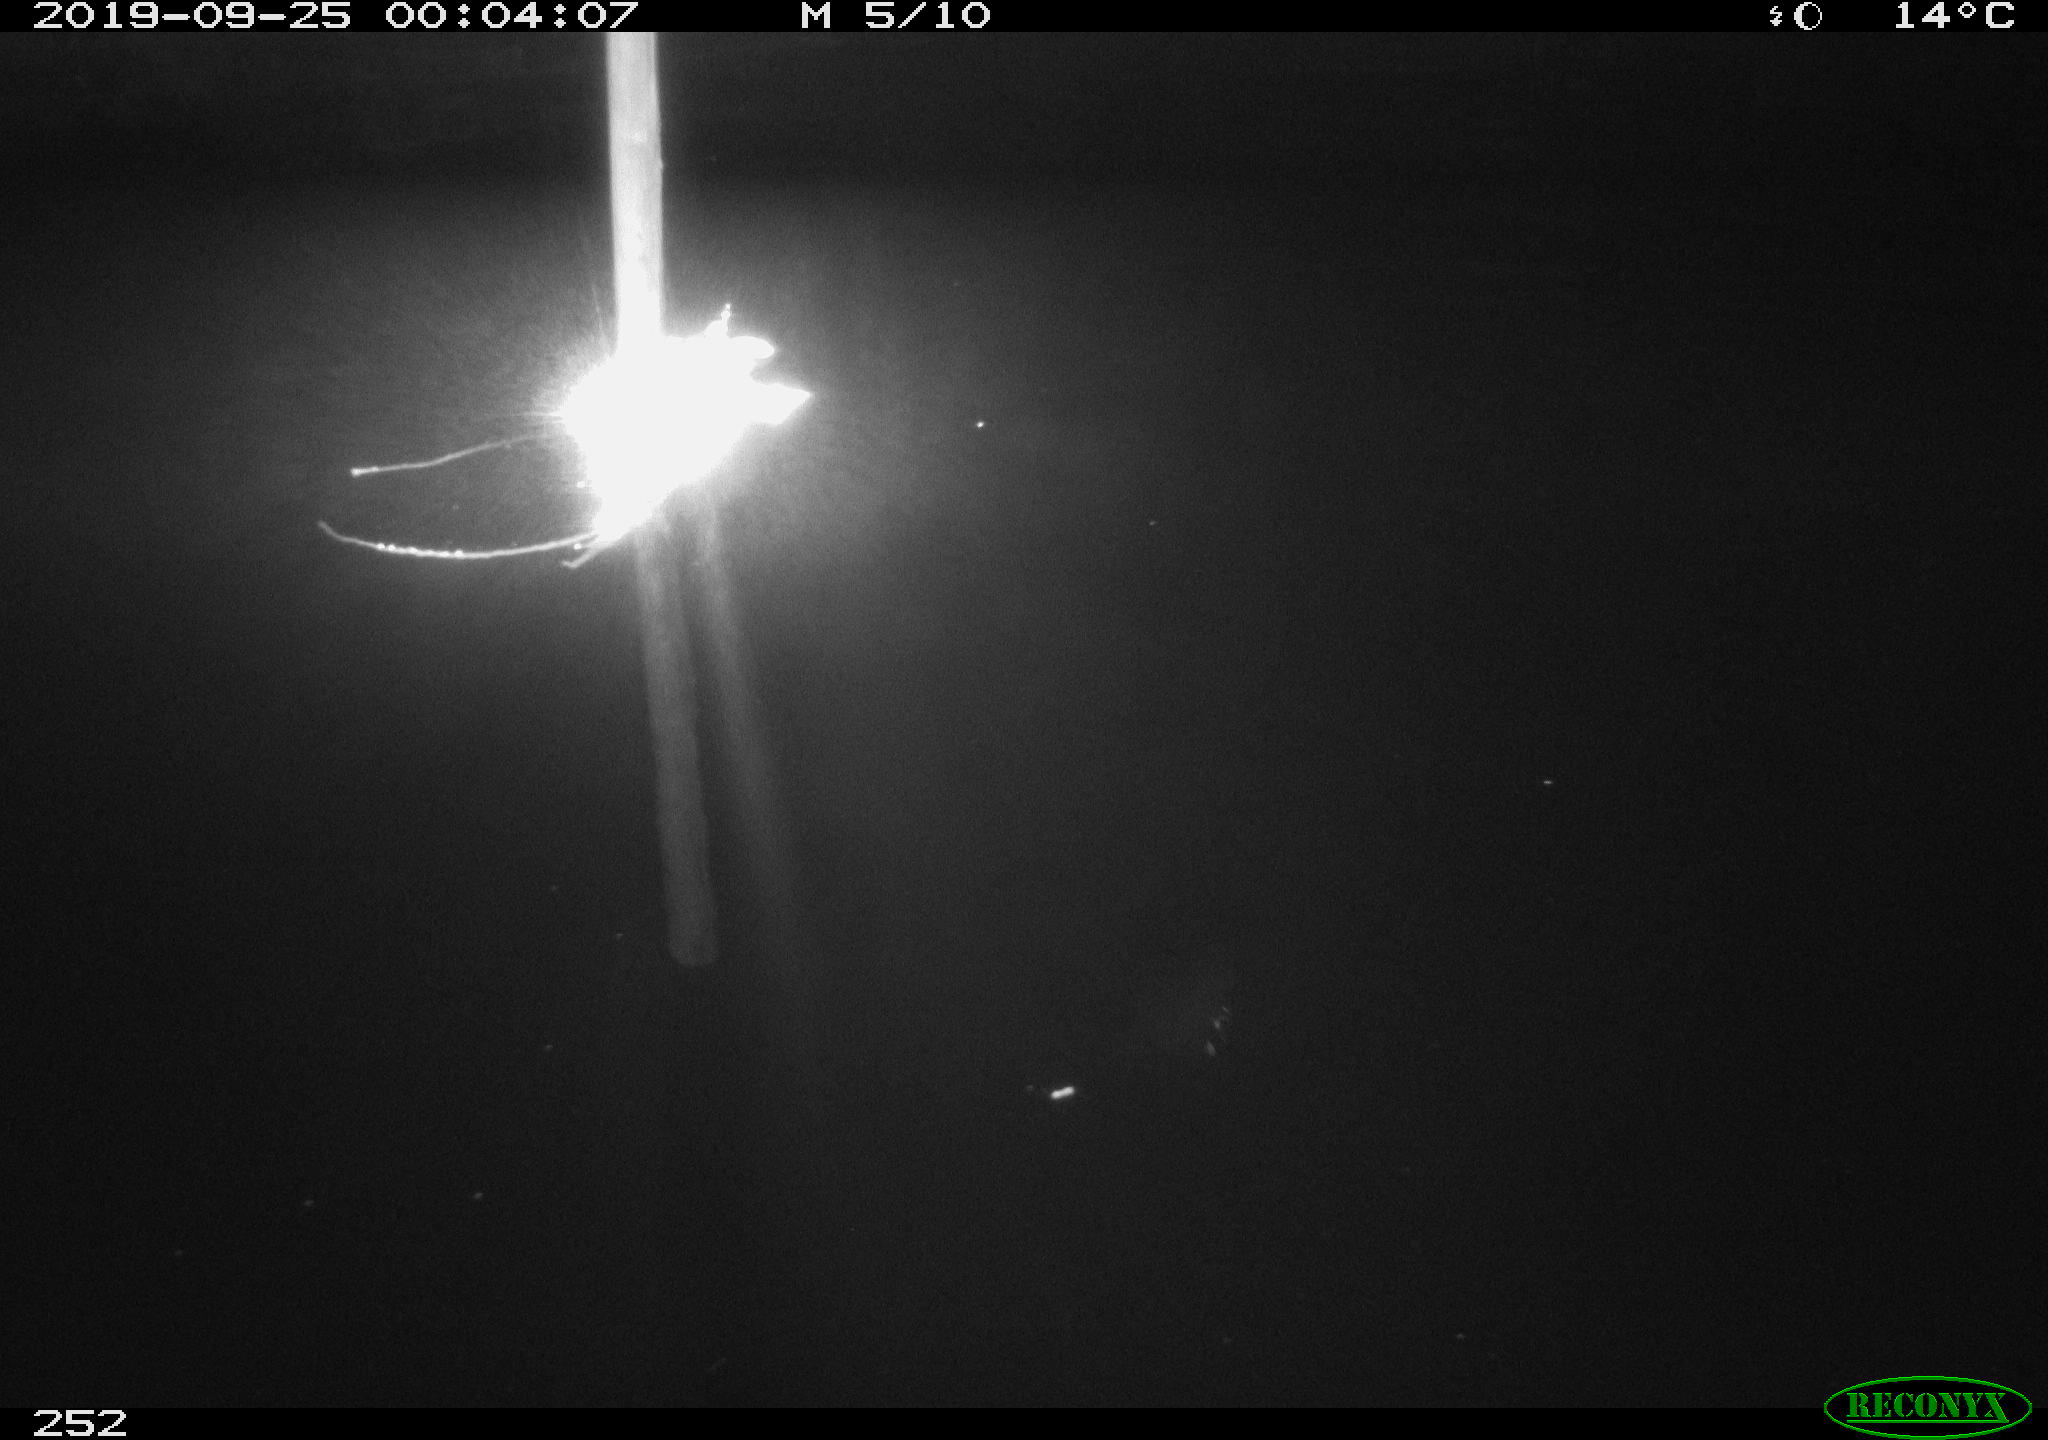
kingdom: Animalia
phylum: Chordata
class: Aves
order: Anseriformes
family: Anatidae
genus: Anas
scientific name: Anas platyrhynchos
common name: Mallard
